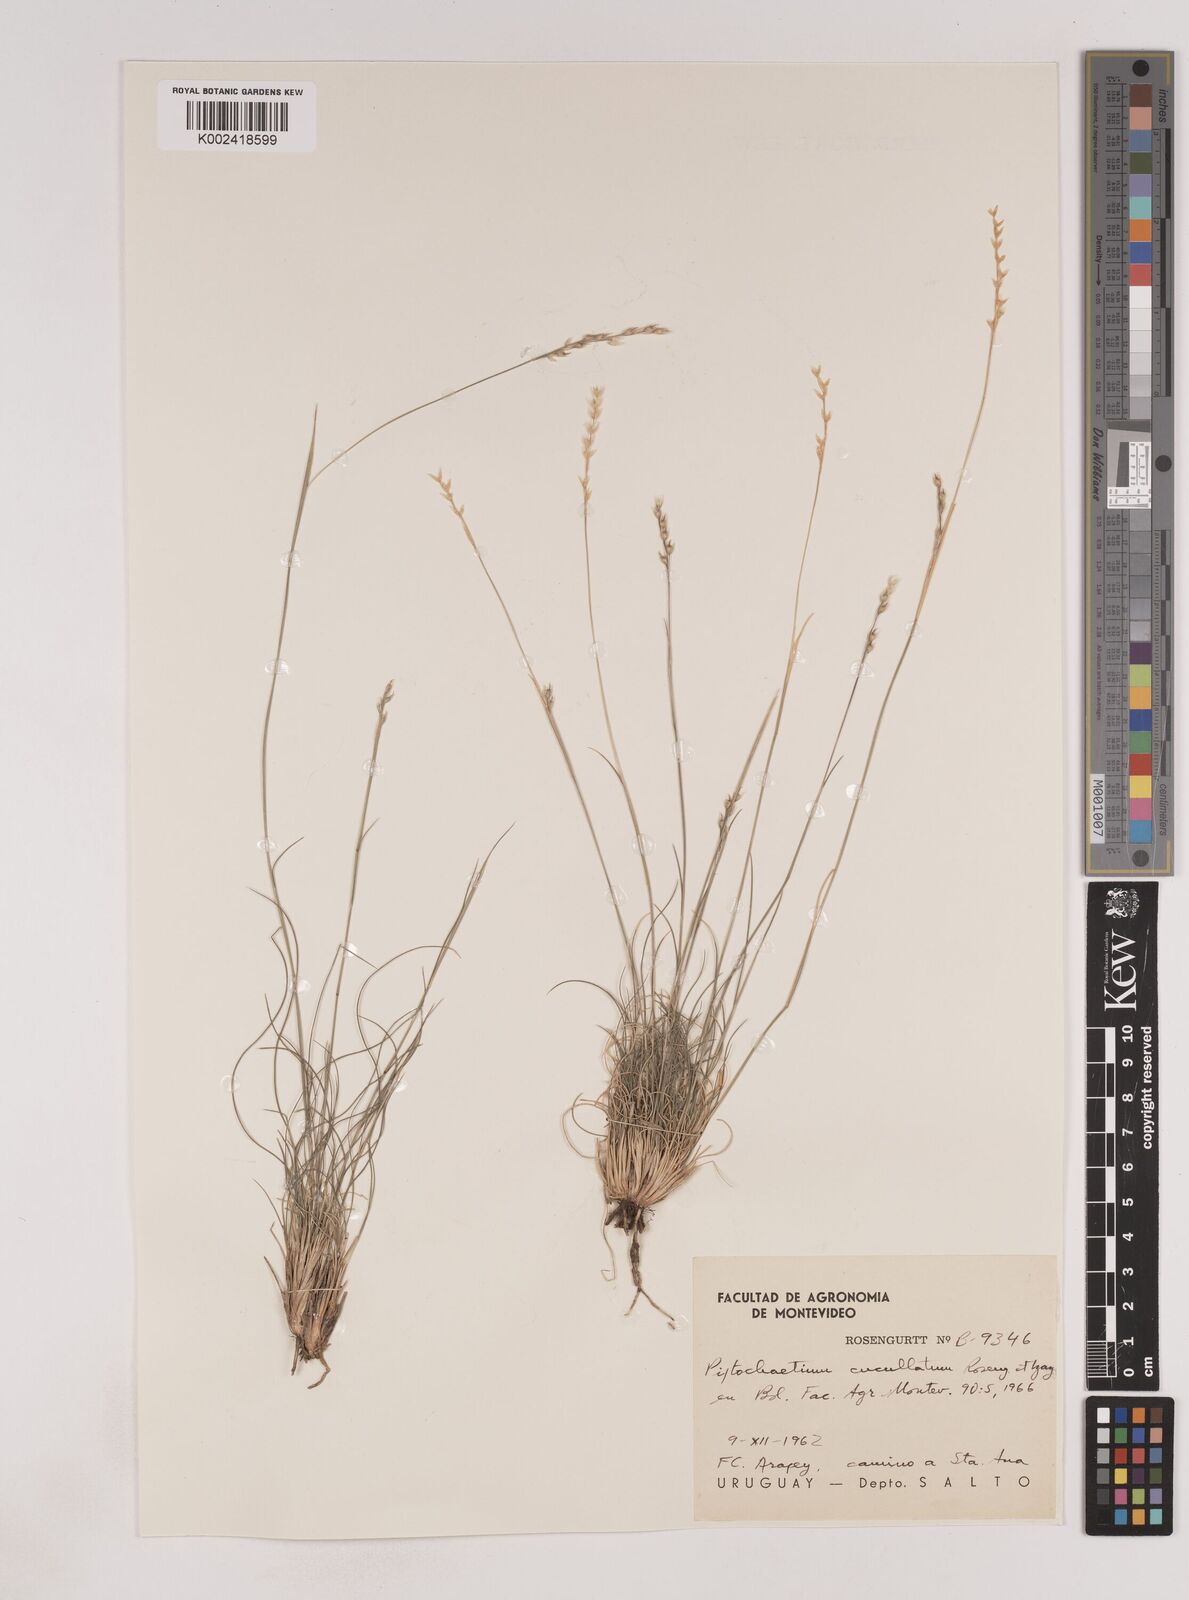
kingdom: Plantae
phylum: Tracheophyta
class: Liliopsida
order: Poales
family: Poaceae
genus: Piptochaetium
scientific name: Piptochaetium cucullatum
